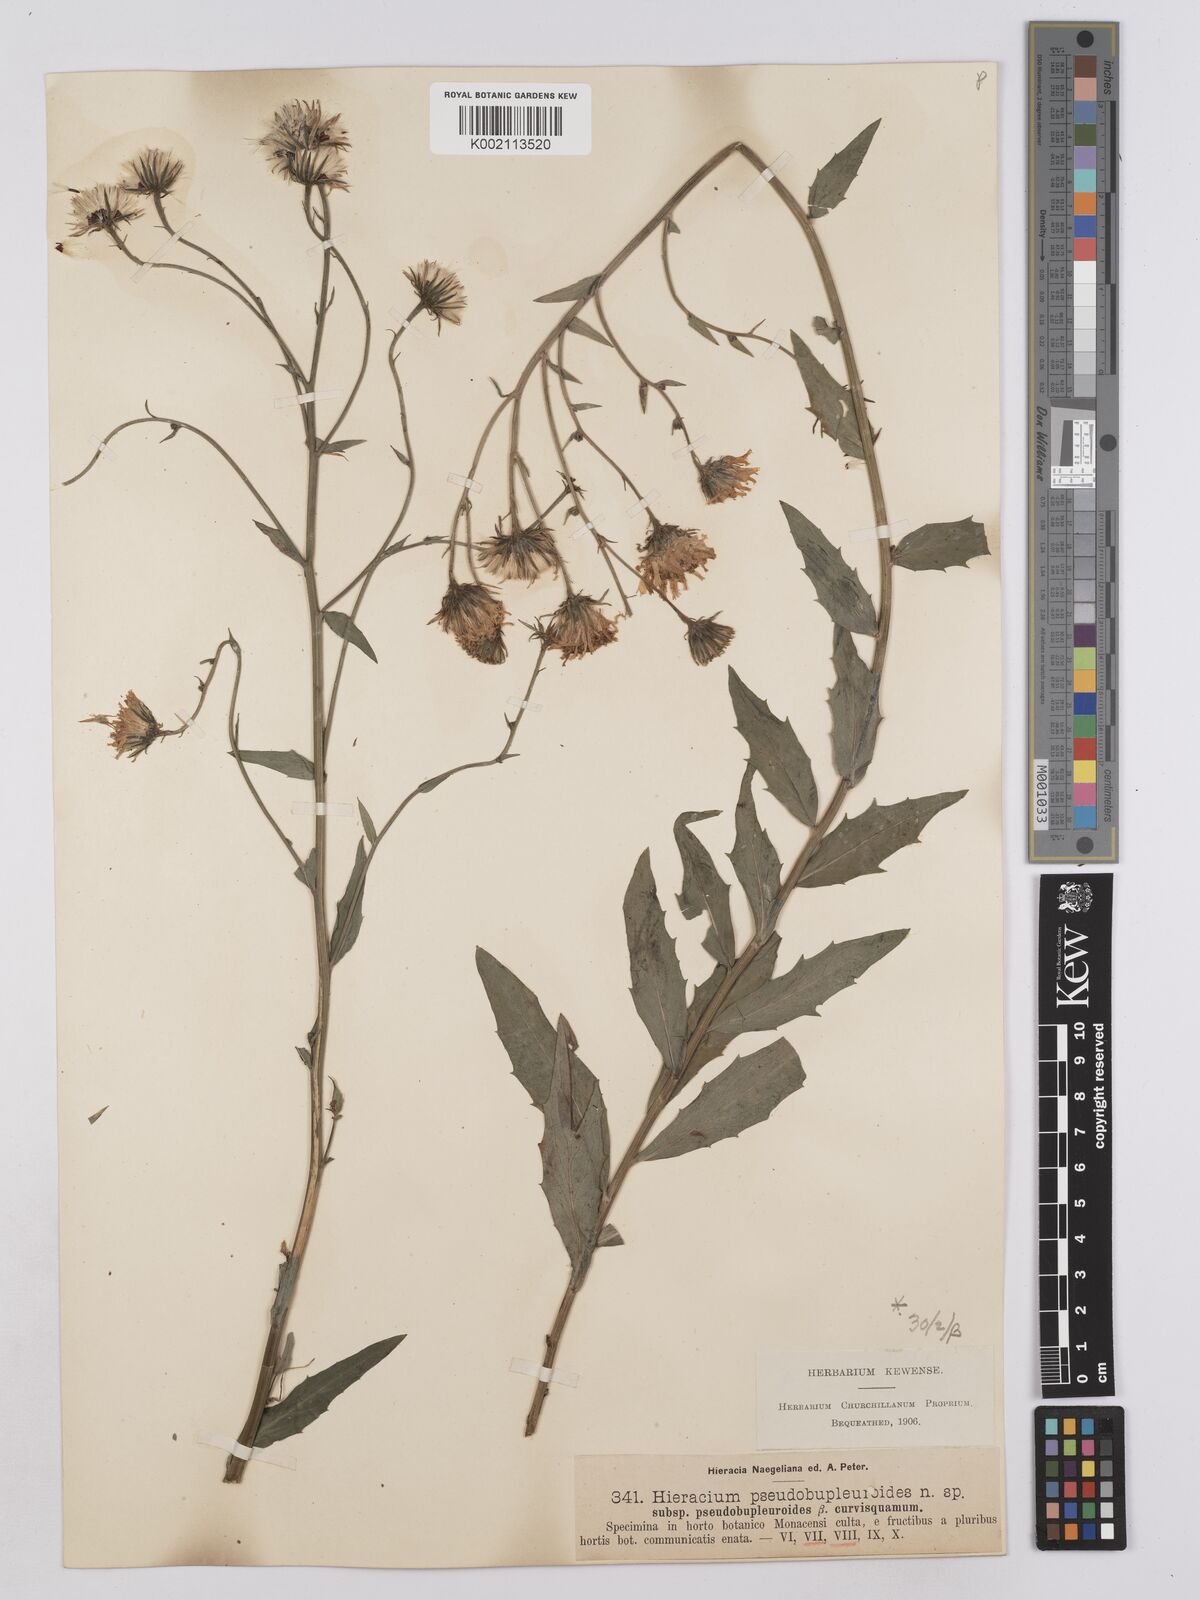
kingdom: Plantae
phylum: Tracheophyta
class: Magnoliopsida
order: Asterales
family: Asteraceae
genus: Hieracium
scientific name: Hieracium vindobonense
